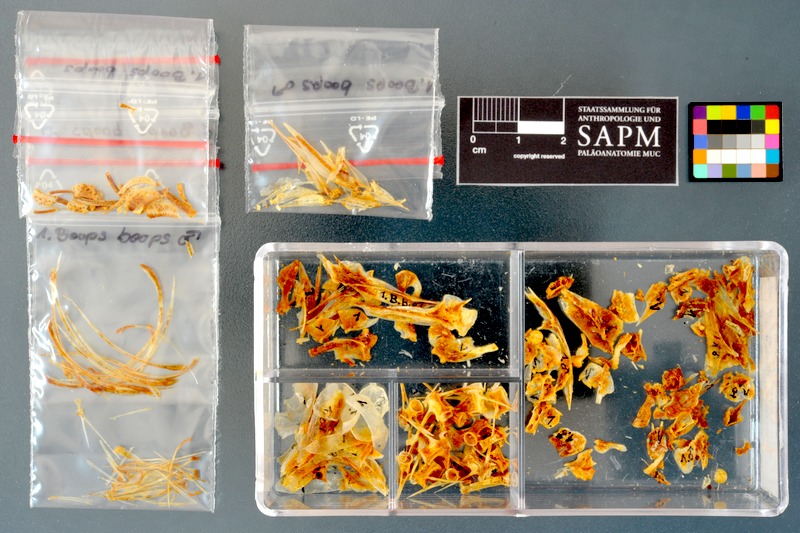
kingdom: Animalia
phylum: Chordata
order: Perciformes
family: Sparidae
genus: Boops
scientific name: Boops boops
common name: Bogue
